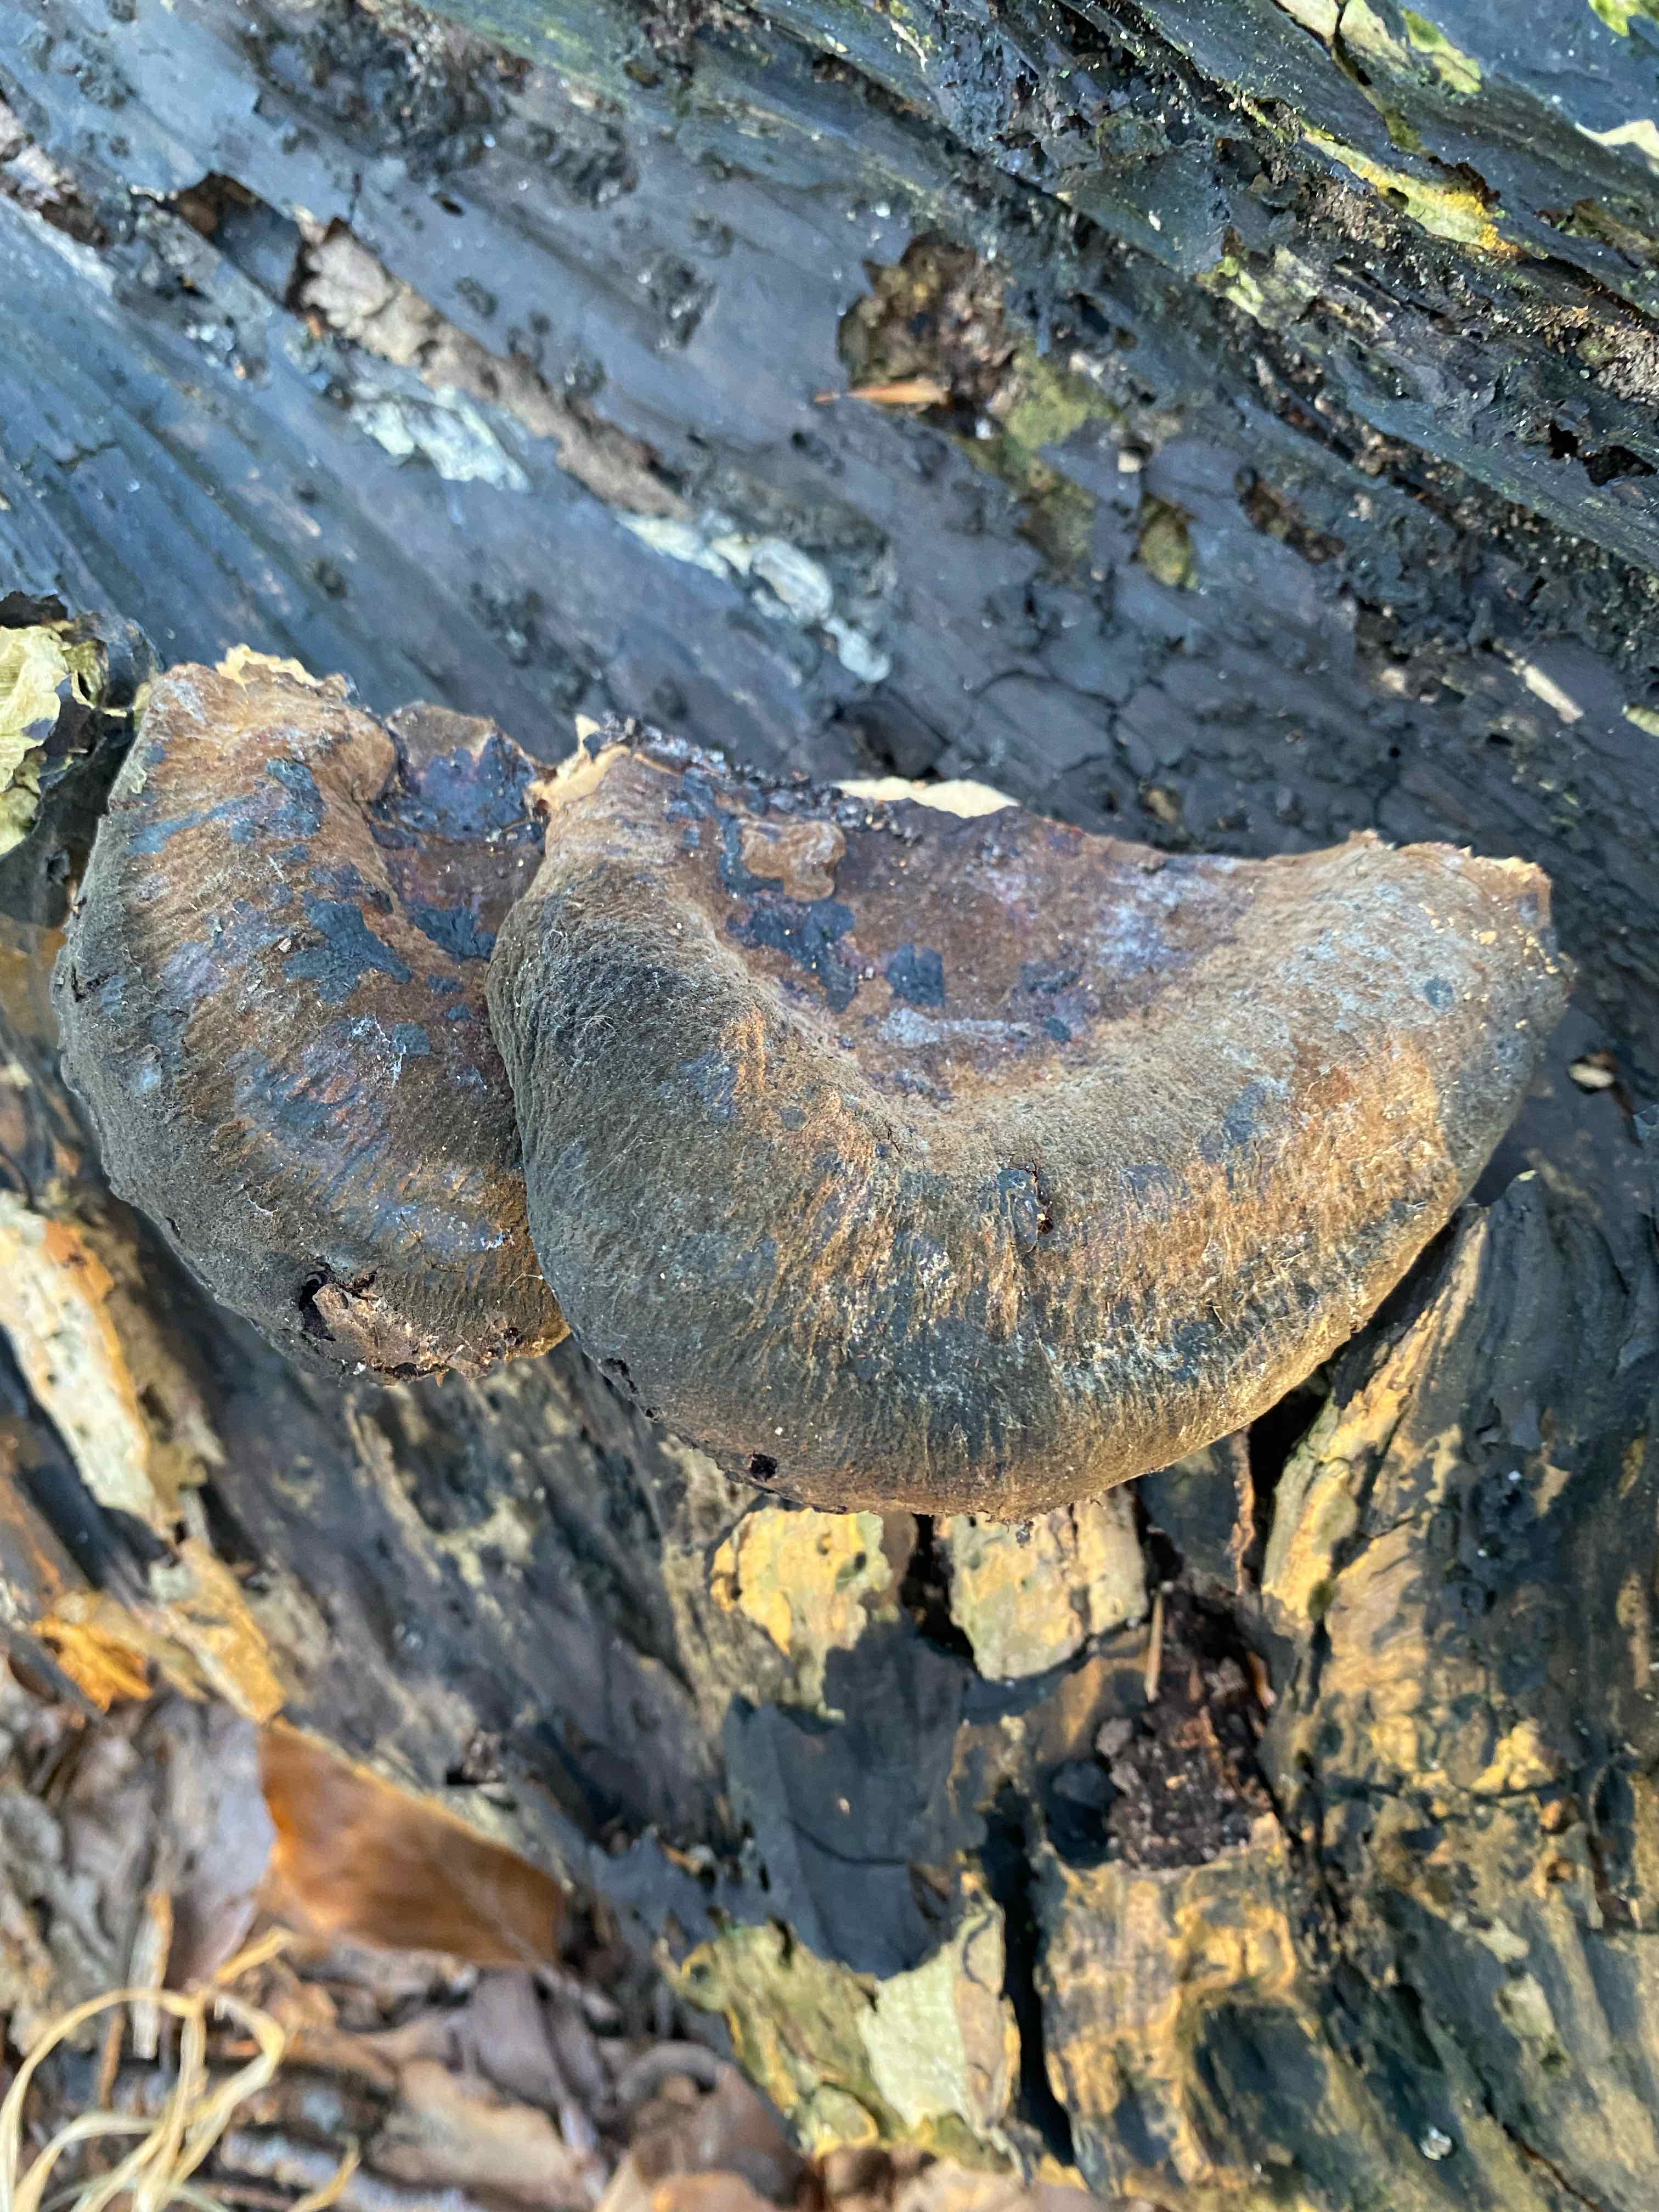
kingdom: Fungi
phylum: Basidiomycota
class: Agaricomycetes
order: Polyporales
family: Ischnodermataceae
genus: Ischnoderma
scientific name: Ischnoderma resinosum
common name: løv-tjæreporesvamp
